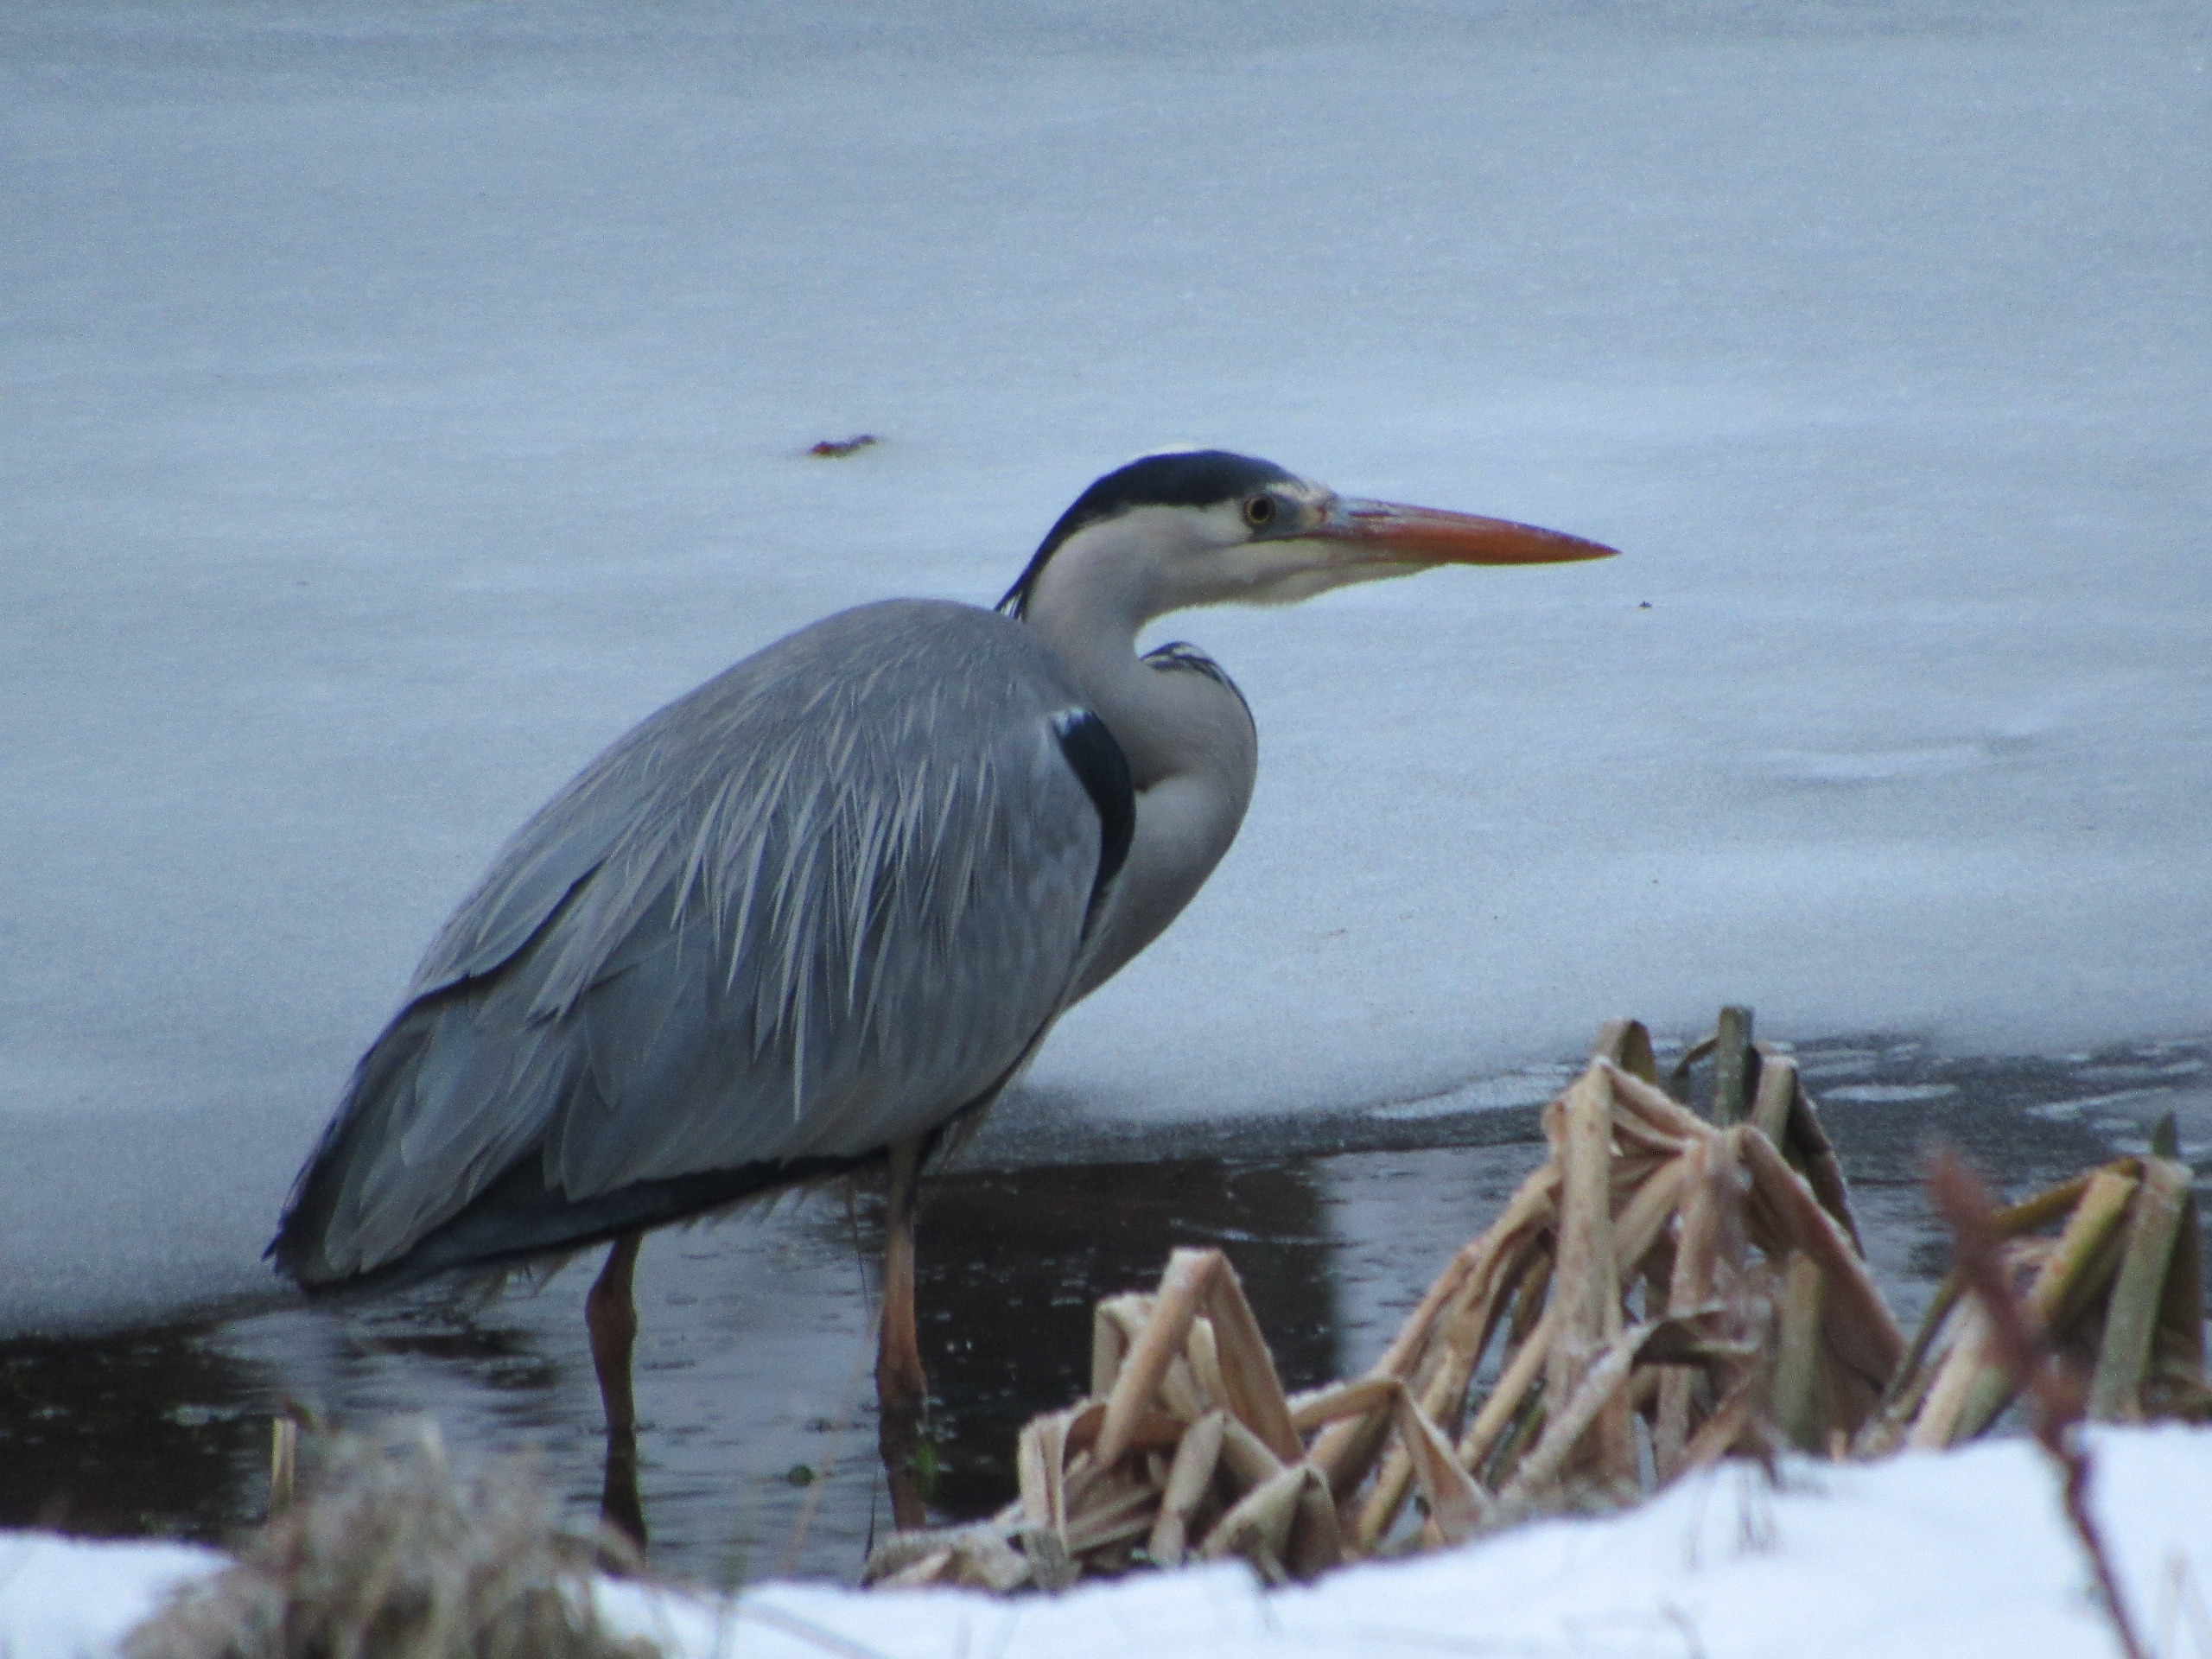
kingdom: Animalia
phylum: Chordata
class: Aves
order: Pelecaniformes
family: Ardeidae
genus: Ardea
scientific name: Ardea cinerea
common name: Fiskehejre
